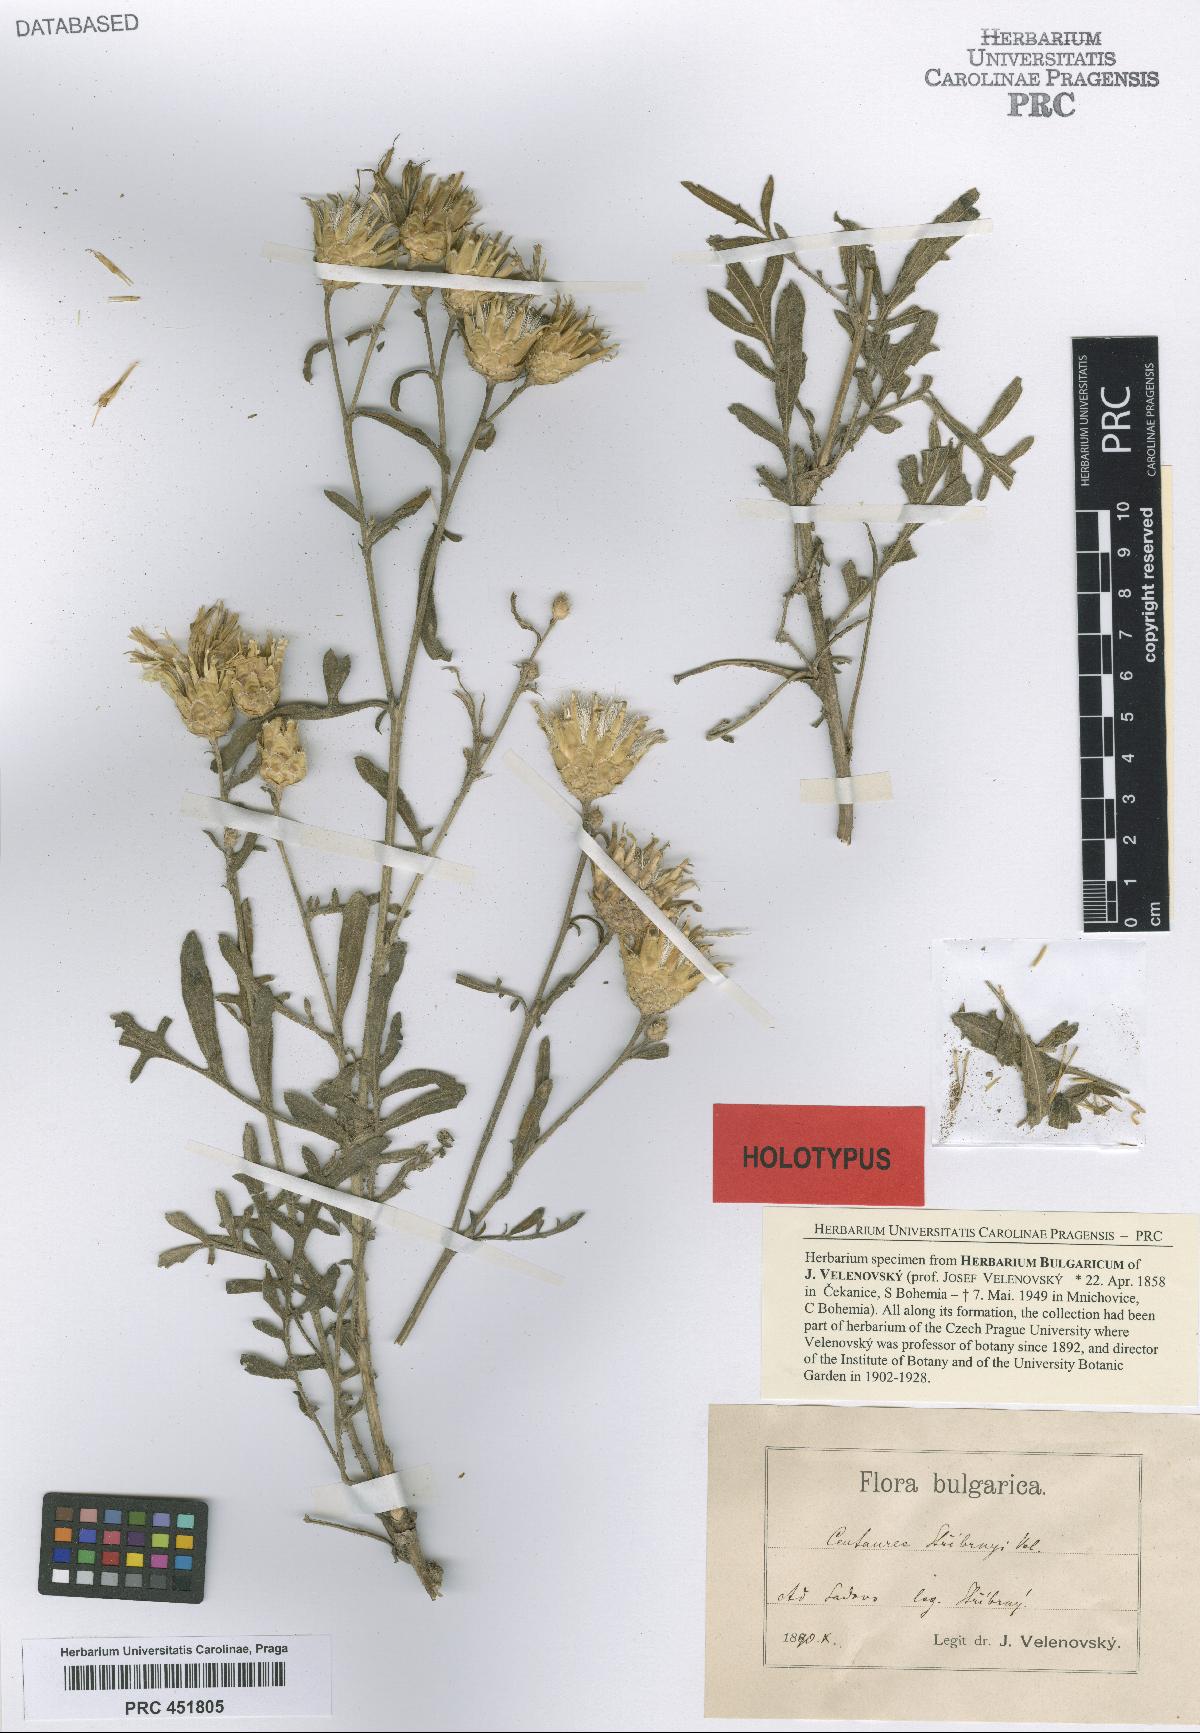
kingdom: Plantae
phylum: Tracheophyta
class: Magnoliopsida
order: Asterales
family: Asteraceae
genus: Centaurea
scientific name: Centaurea salonitana
